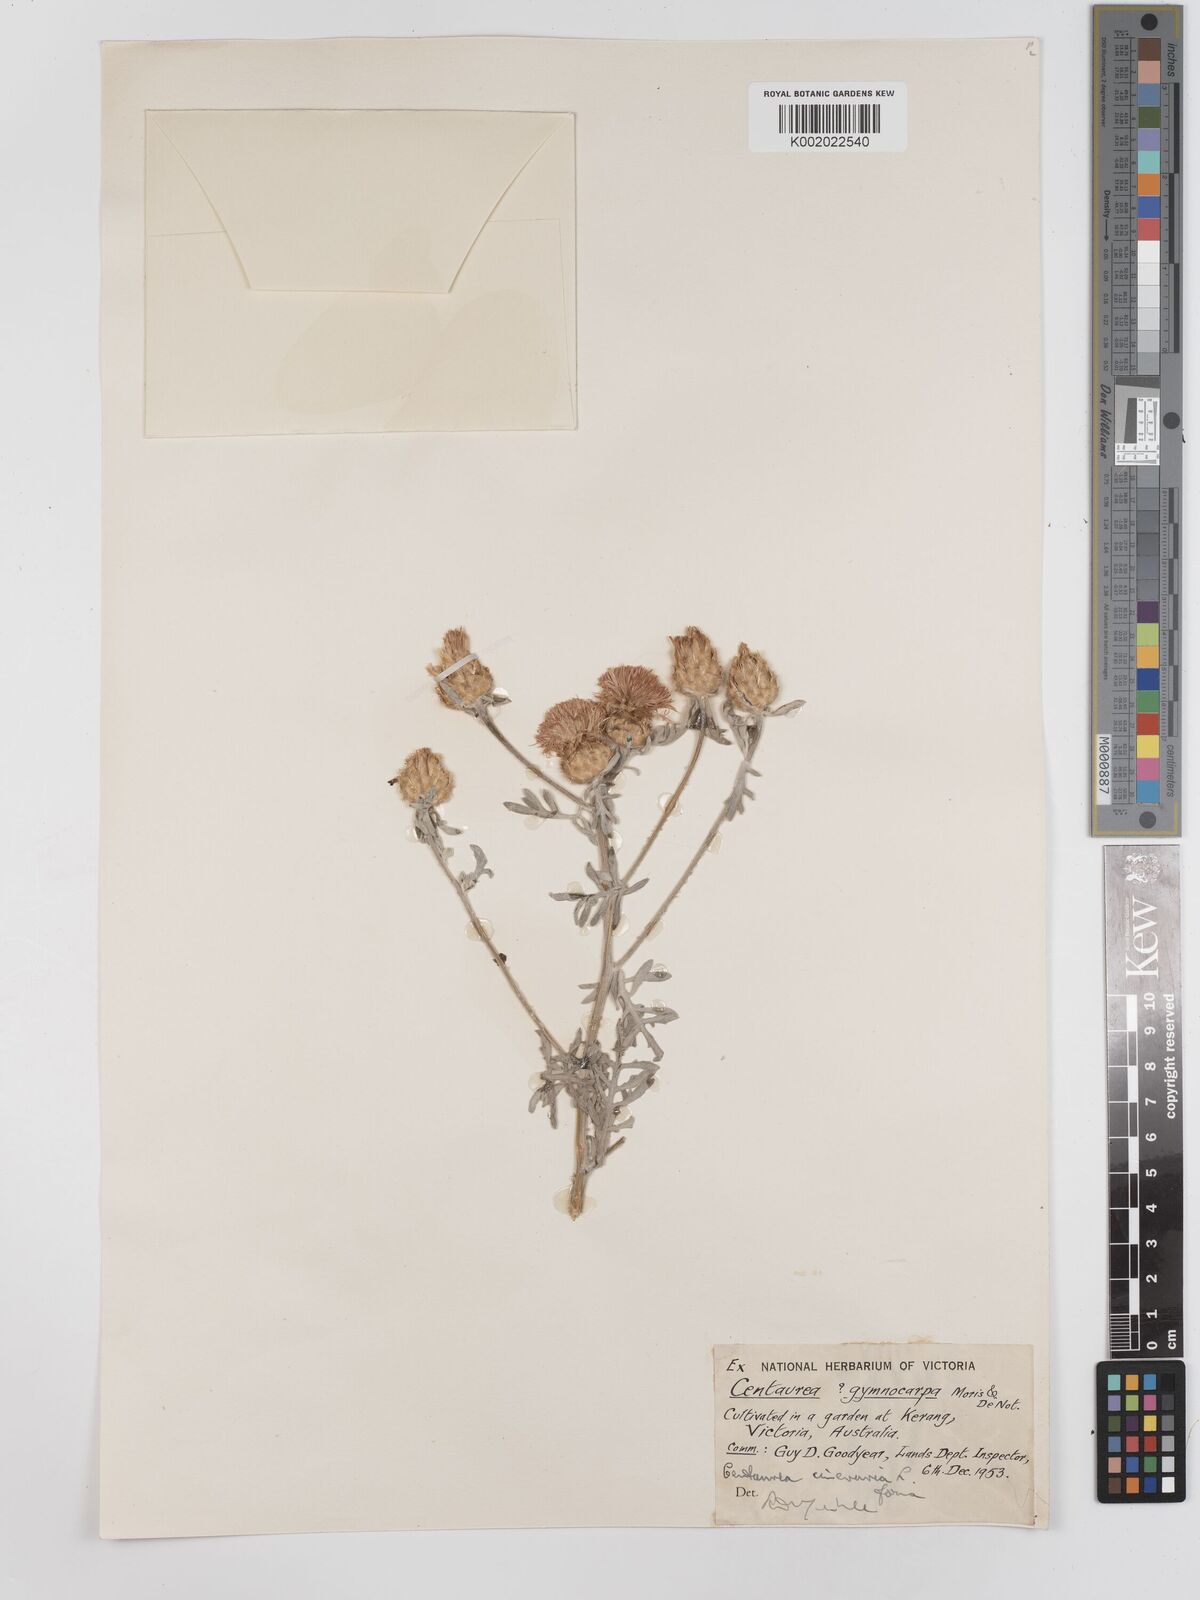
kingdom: Plantae
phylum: Tracheophyta
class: Magnoliopsida
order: Asterales
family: Asteraceae
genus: Centaurea
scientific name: Centaurea
